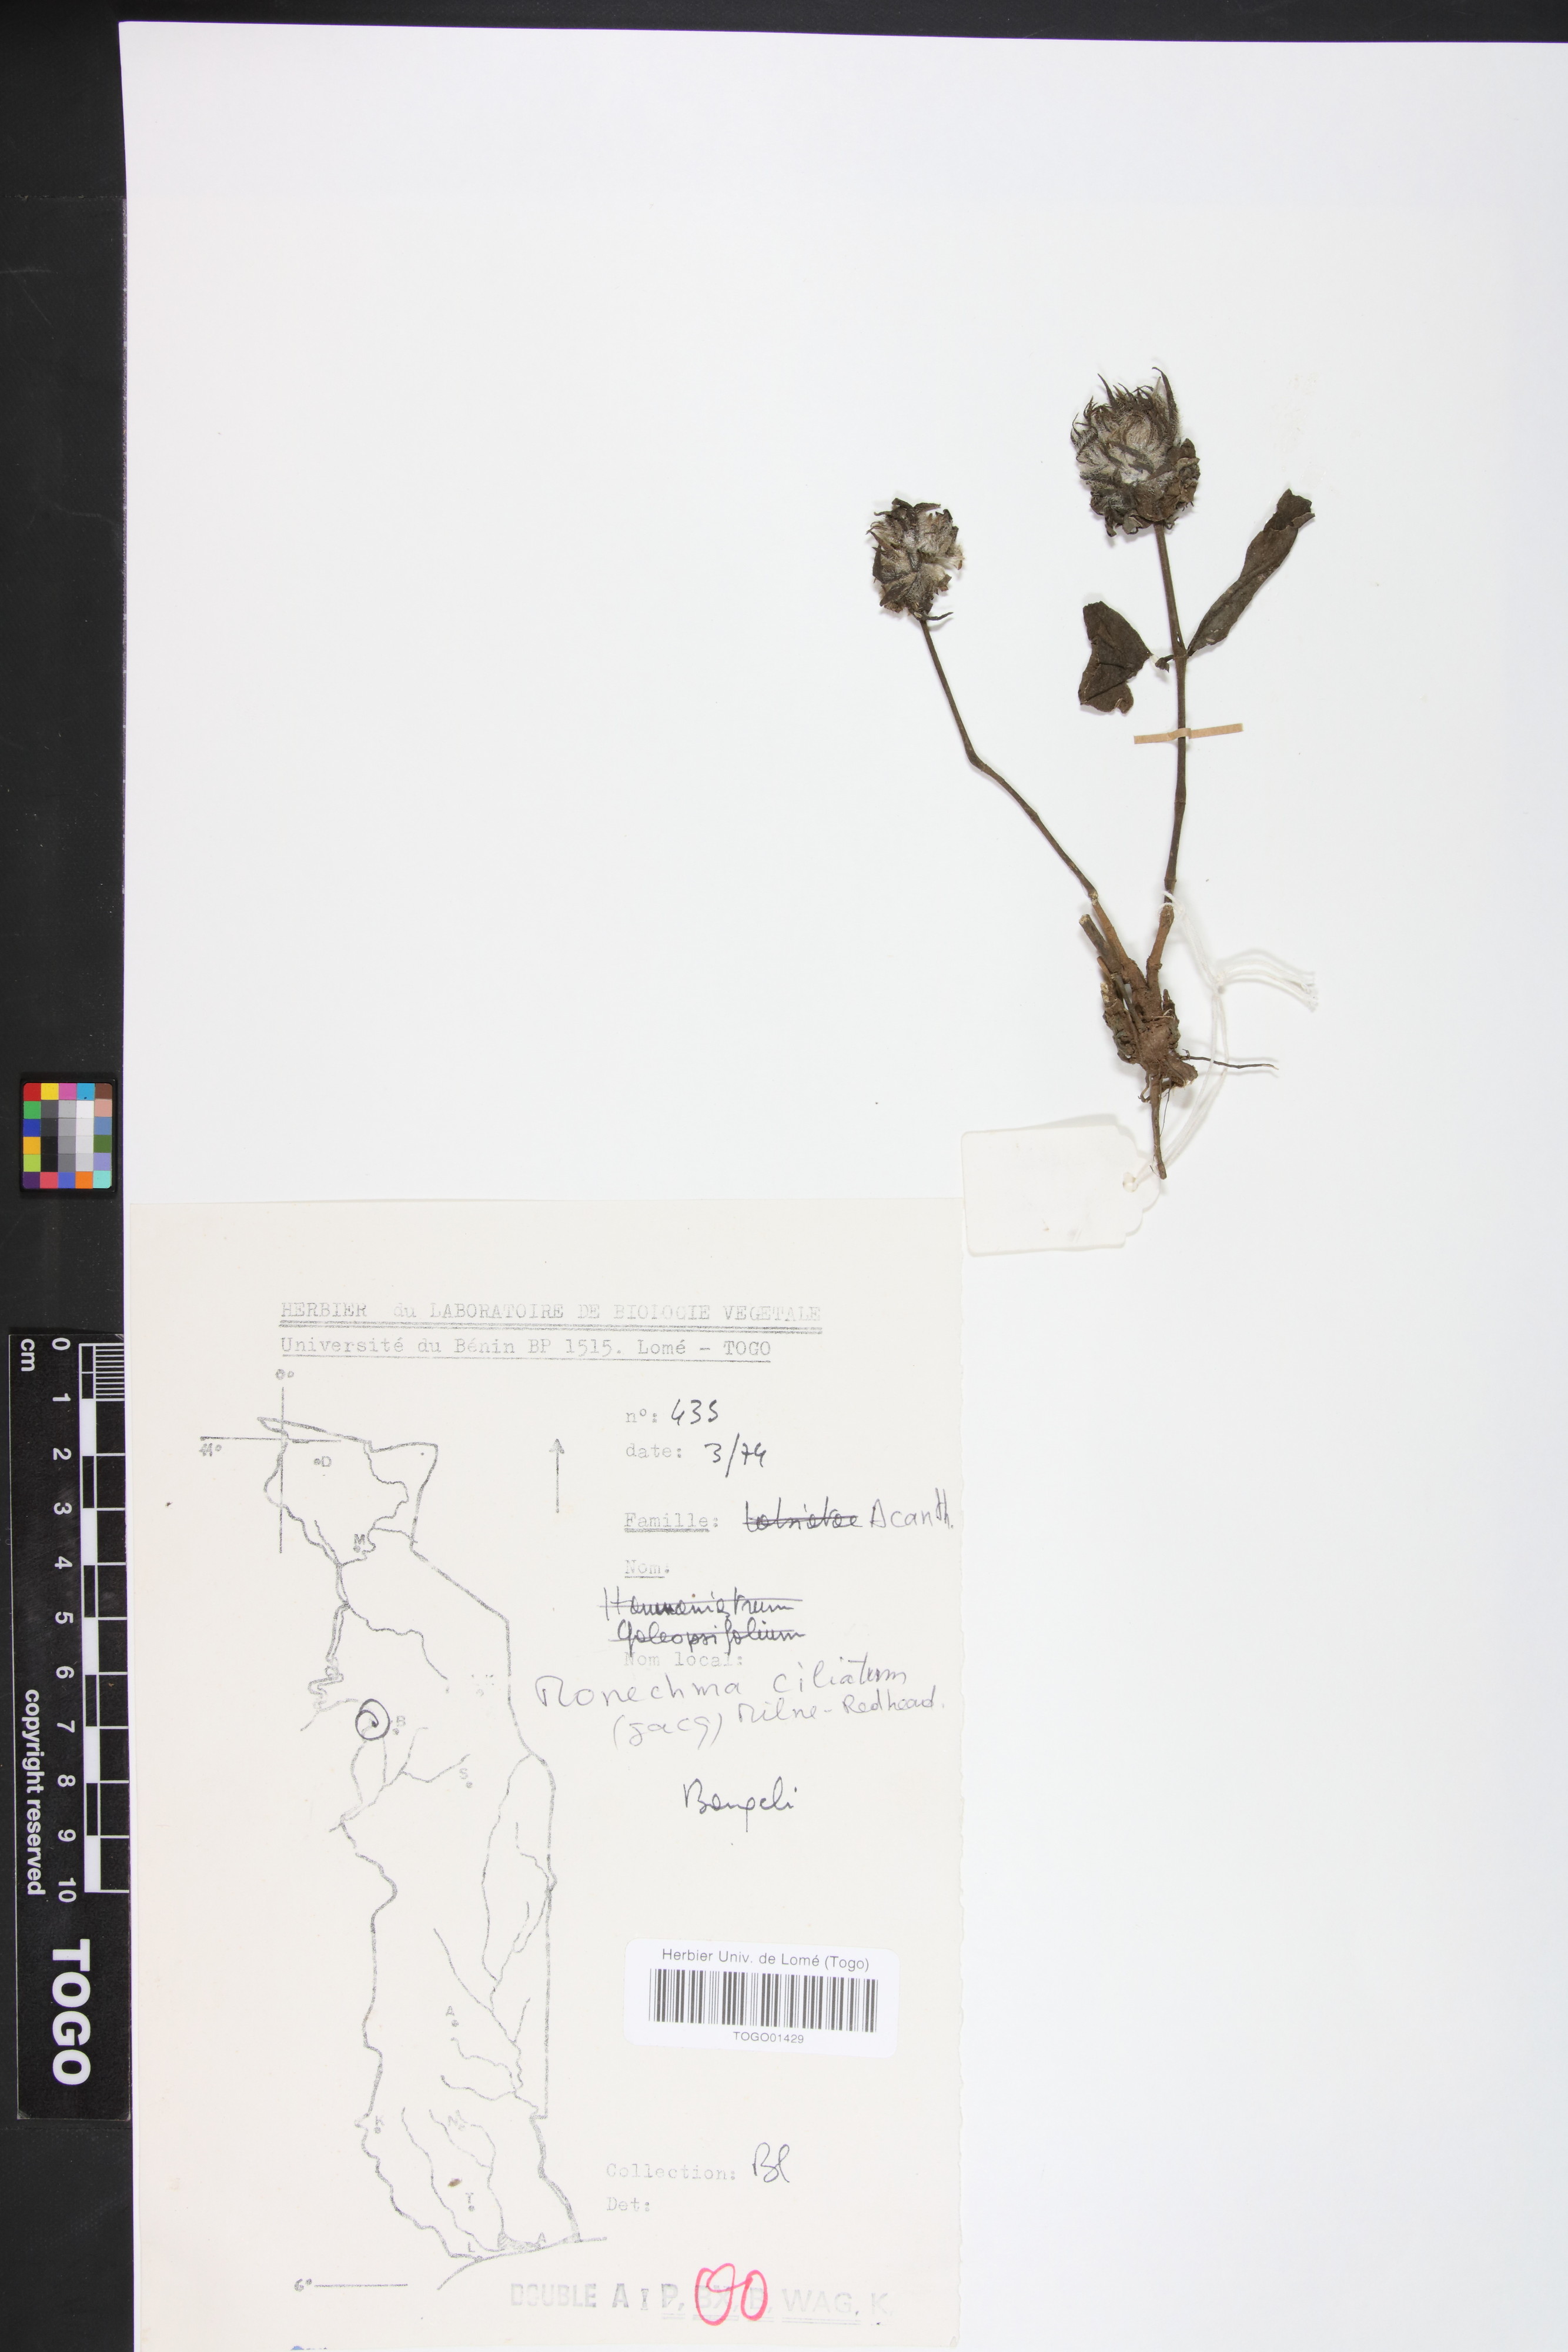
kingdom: Plantae
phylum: Tracheophyta
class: Magnoliopsida
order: Lamiales
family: Acanthaceae
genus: Pogonospermum
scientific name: Pogonospermum ciliare
